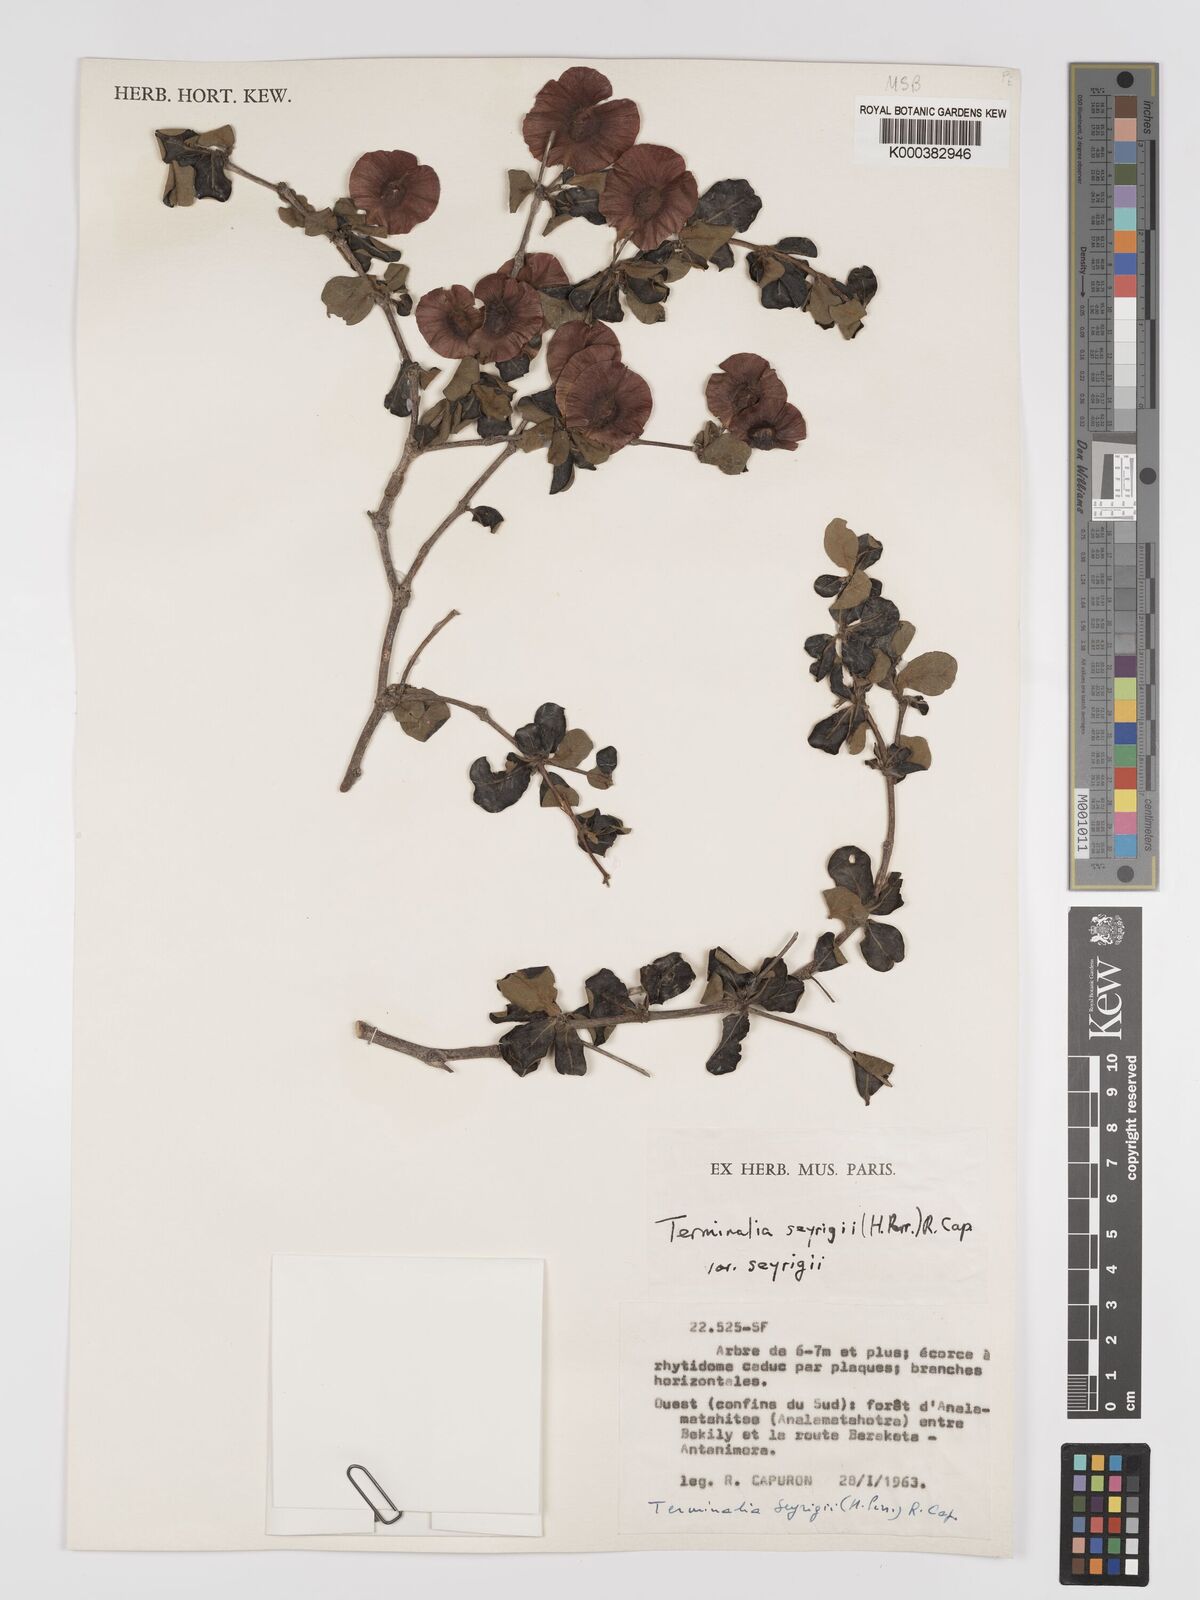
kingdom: Plantae
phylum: Tracheophyta
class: Magnoliopsida
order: Myrtales
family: Combretaceae
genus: Terminalia
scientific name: Terminalia
